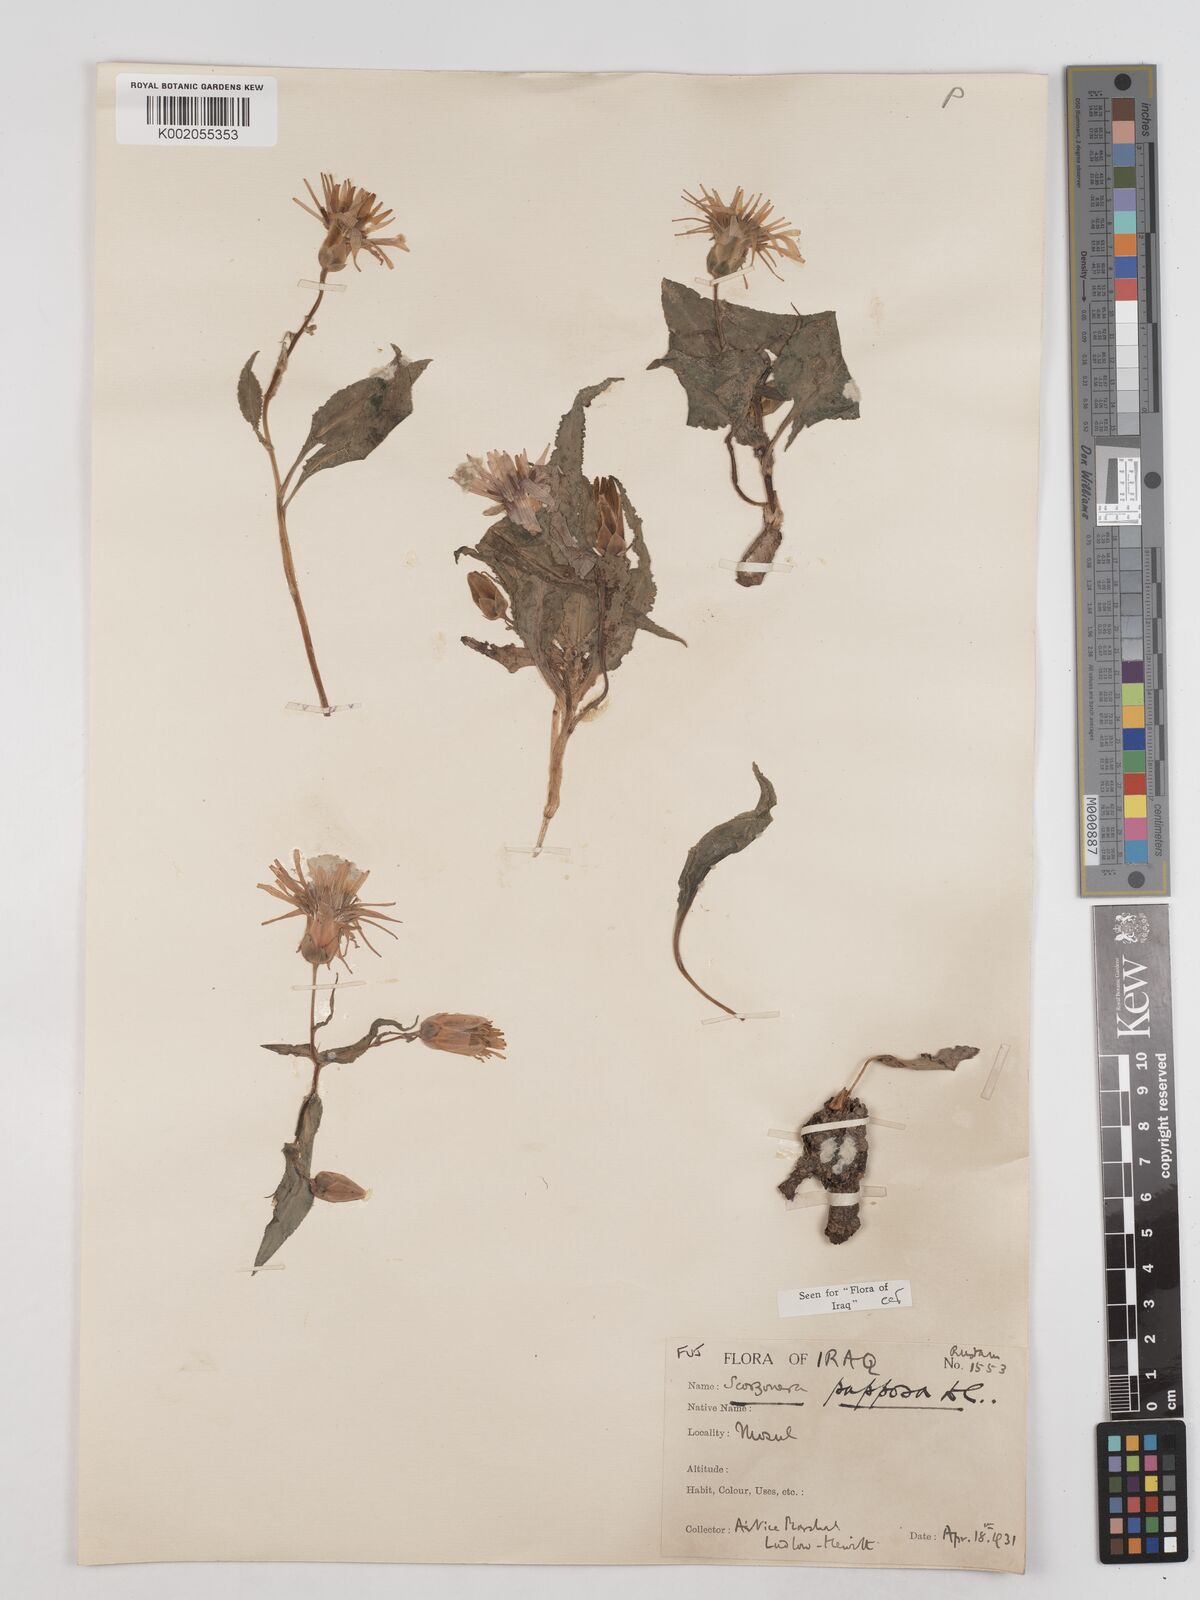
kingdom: Plantae
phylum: Tracheophyta
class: Magnoliopsida
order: Asterales
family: Asteraceae
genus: Pseudopodospermum
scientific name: Pseudopodospermum papposum
